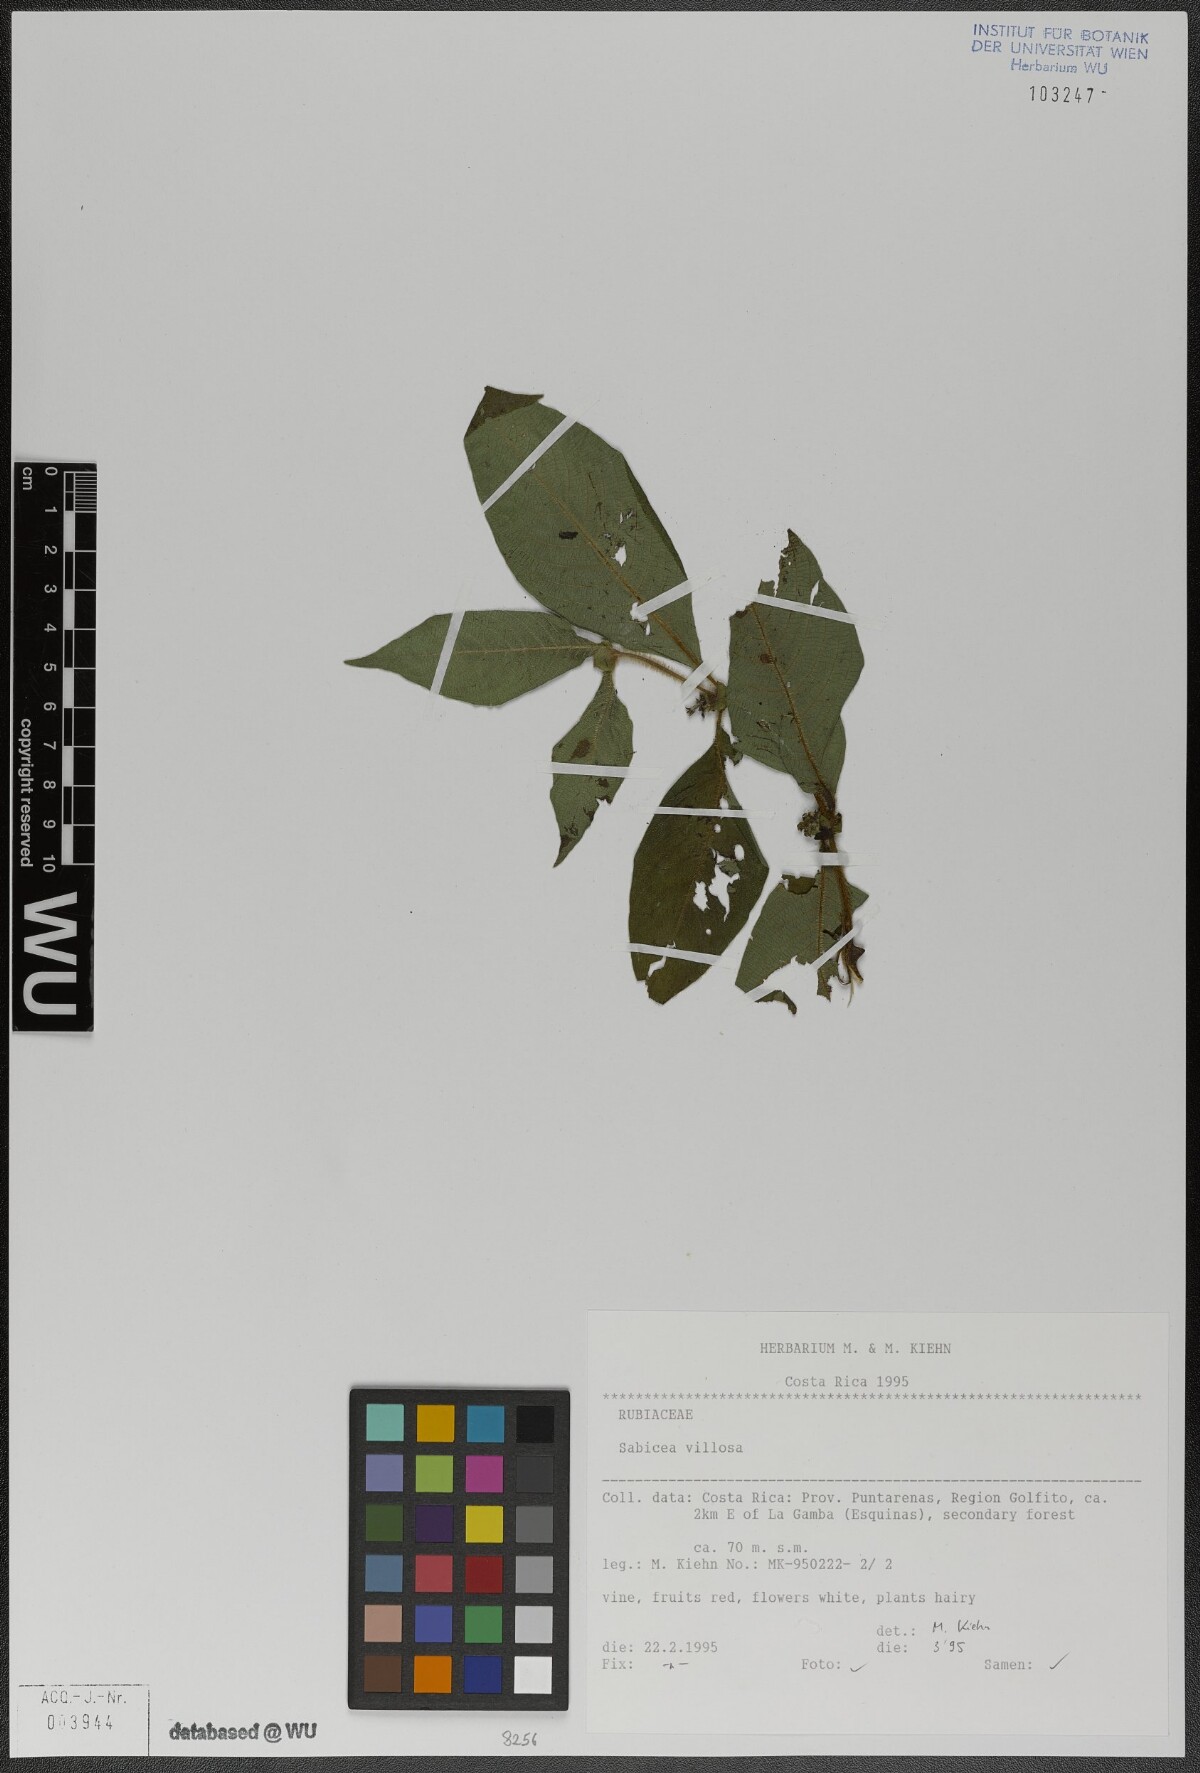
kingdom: Plantae
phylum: Tracheophyta
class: Magnoliopsida
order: Gentianales
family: Rubiaceae
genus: Sabicea
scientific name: Sabicea villosa
